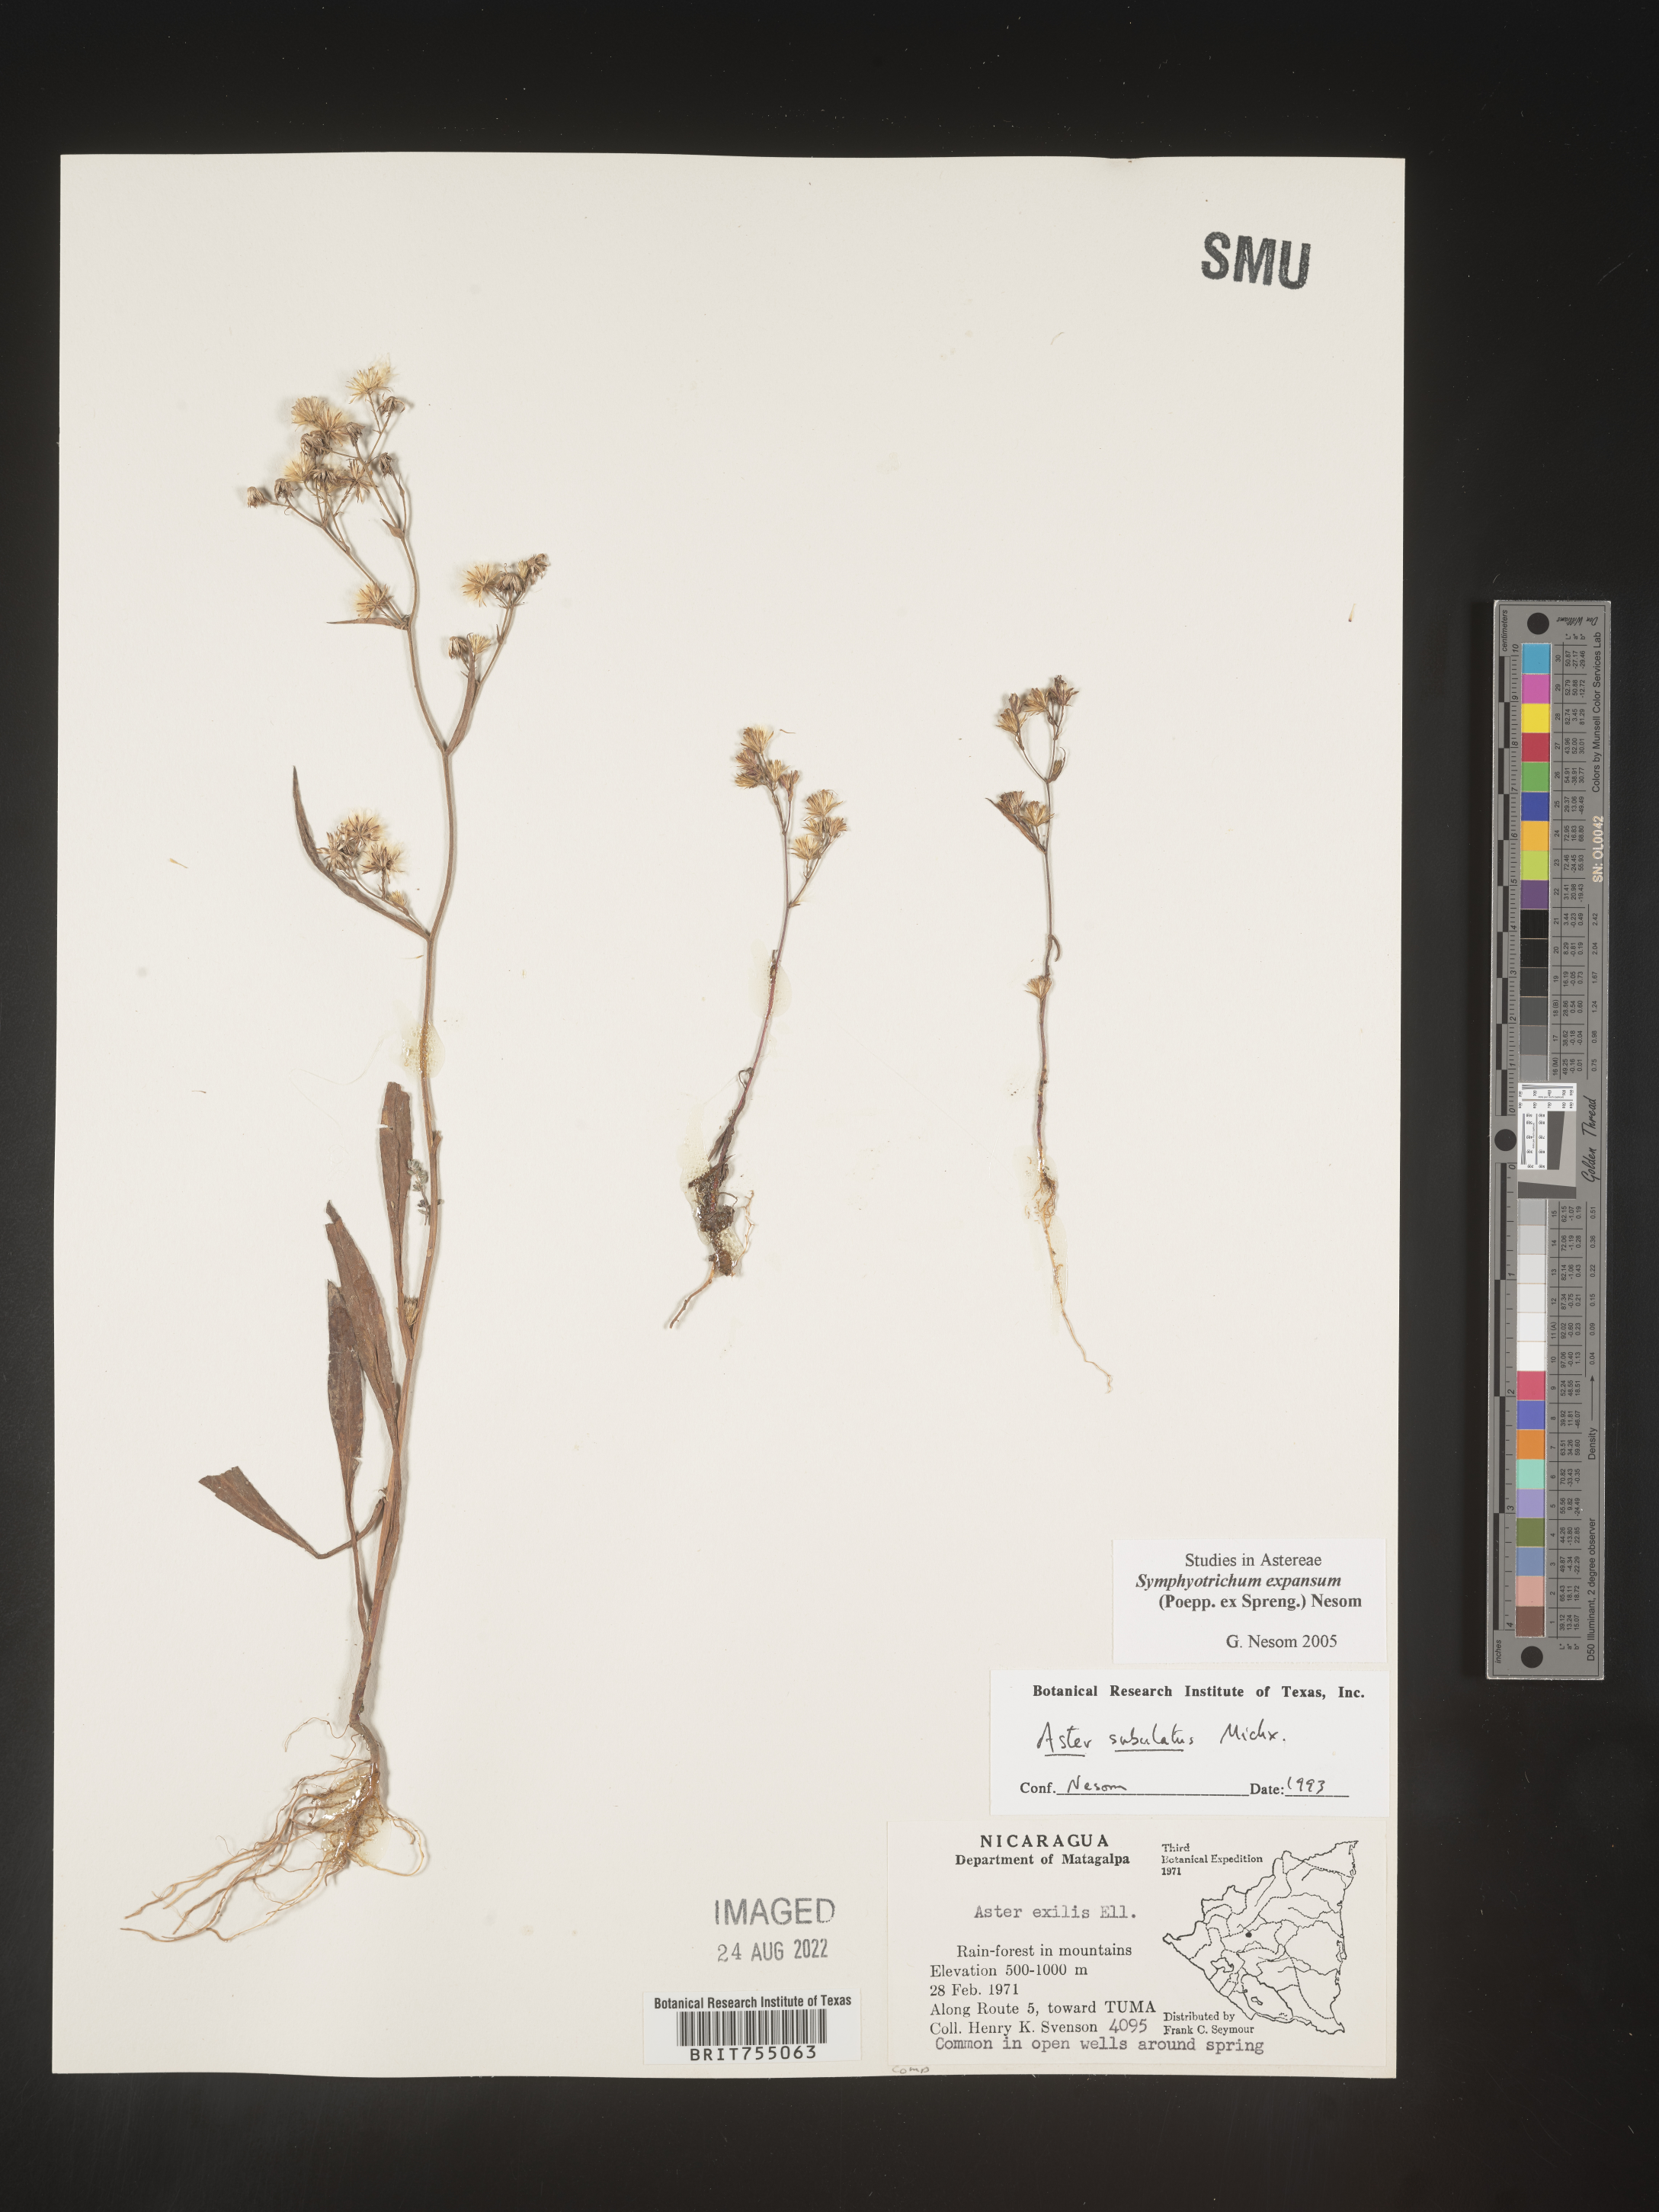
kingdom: Plantae
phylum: Tracheophyta
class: Magnoliopsida
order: Asterales
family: Asteraceae
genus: Symphyotrichum
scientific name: Symphyotrichum expansum
